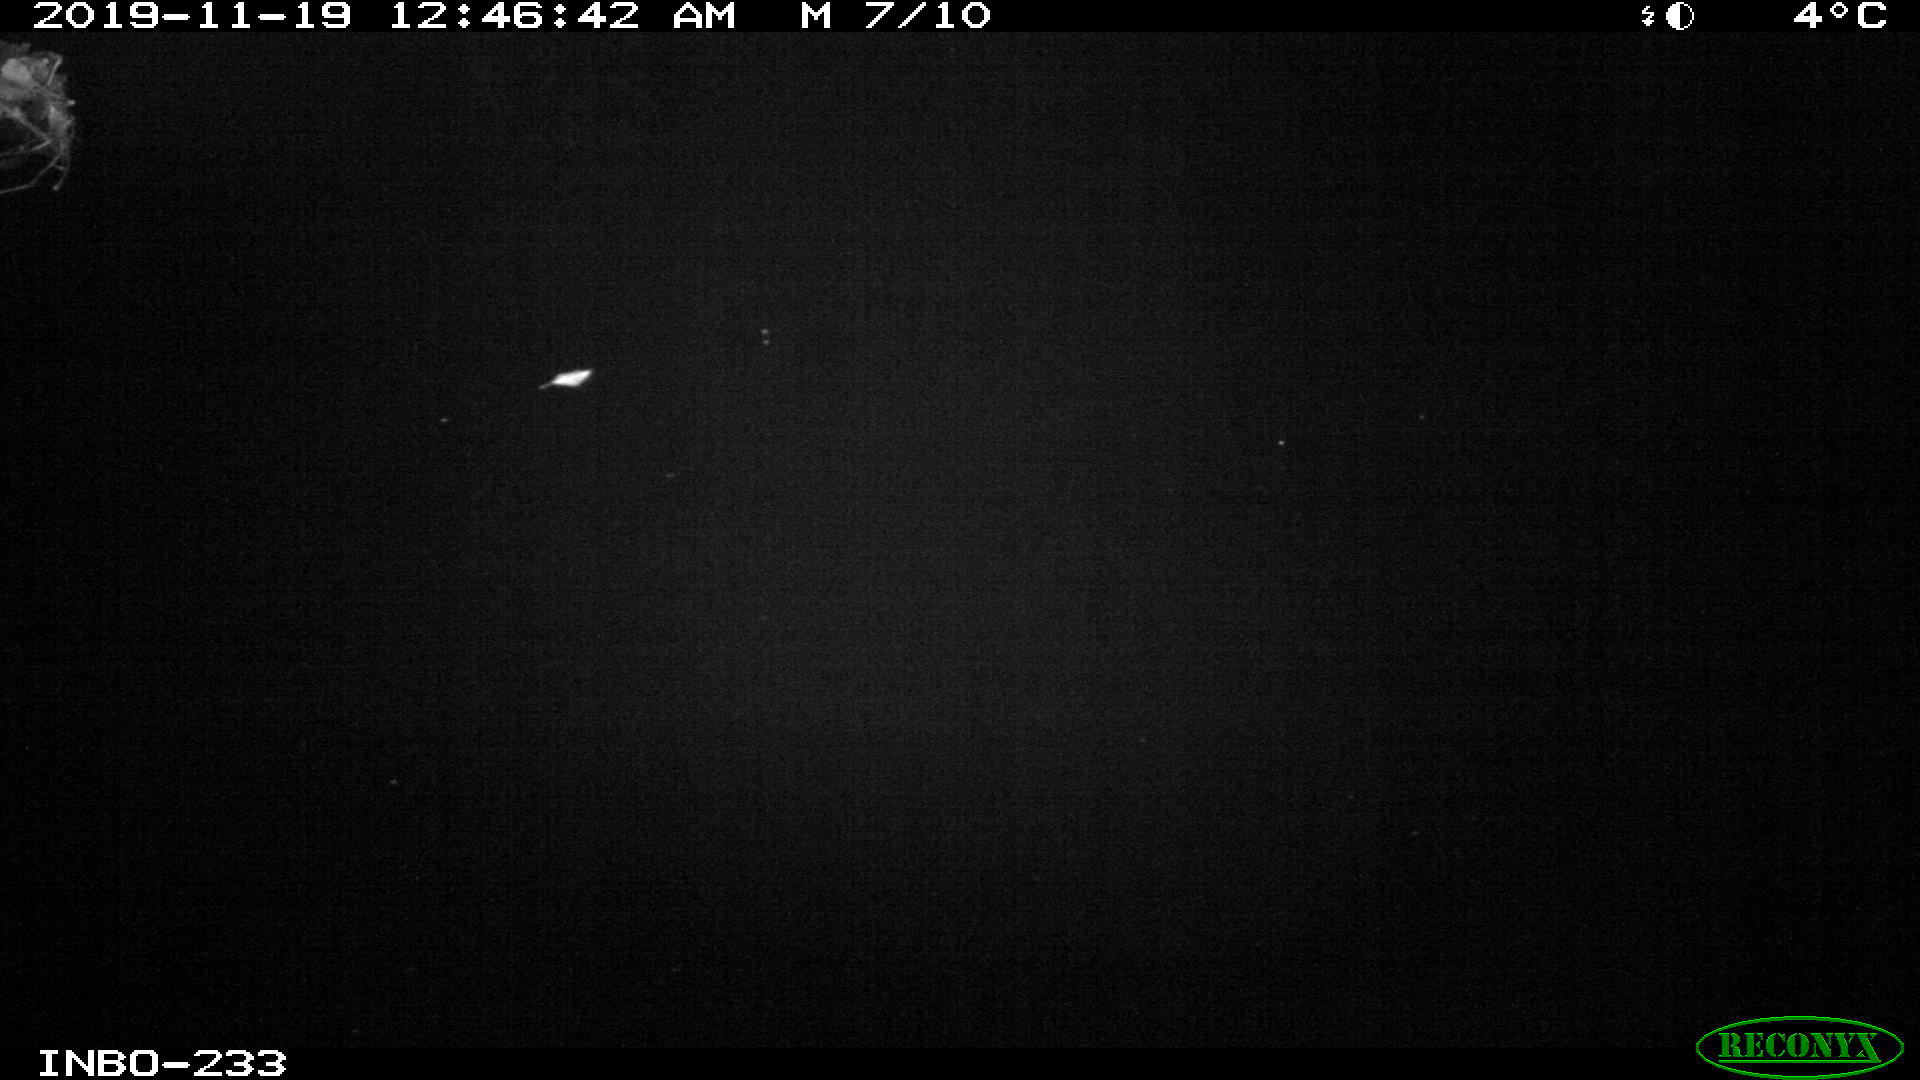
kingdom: Animalia
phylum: Chordata
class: Aves
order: Anseriformes
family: Anatidae
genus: Anas
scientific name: Anas platyrhynchos
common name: Mallard
